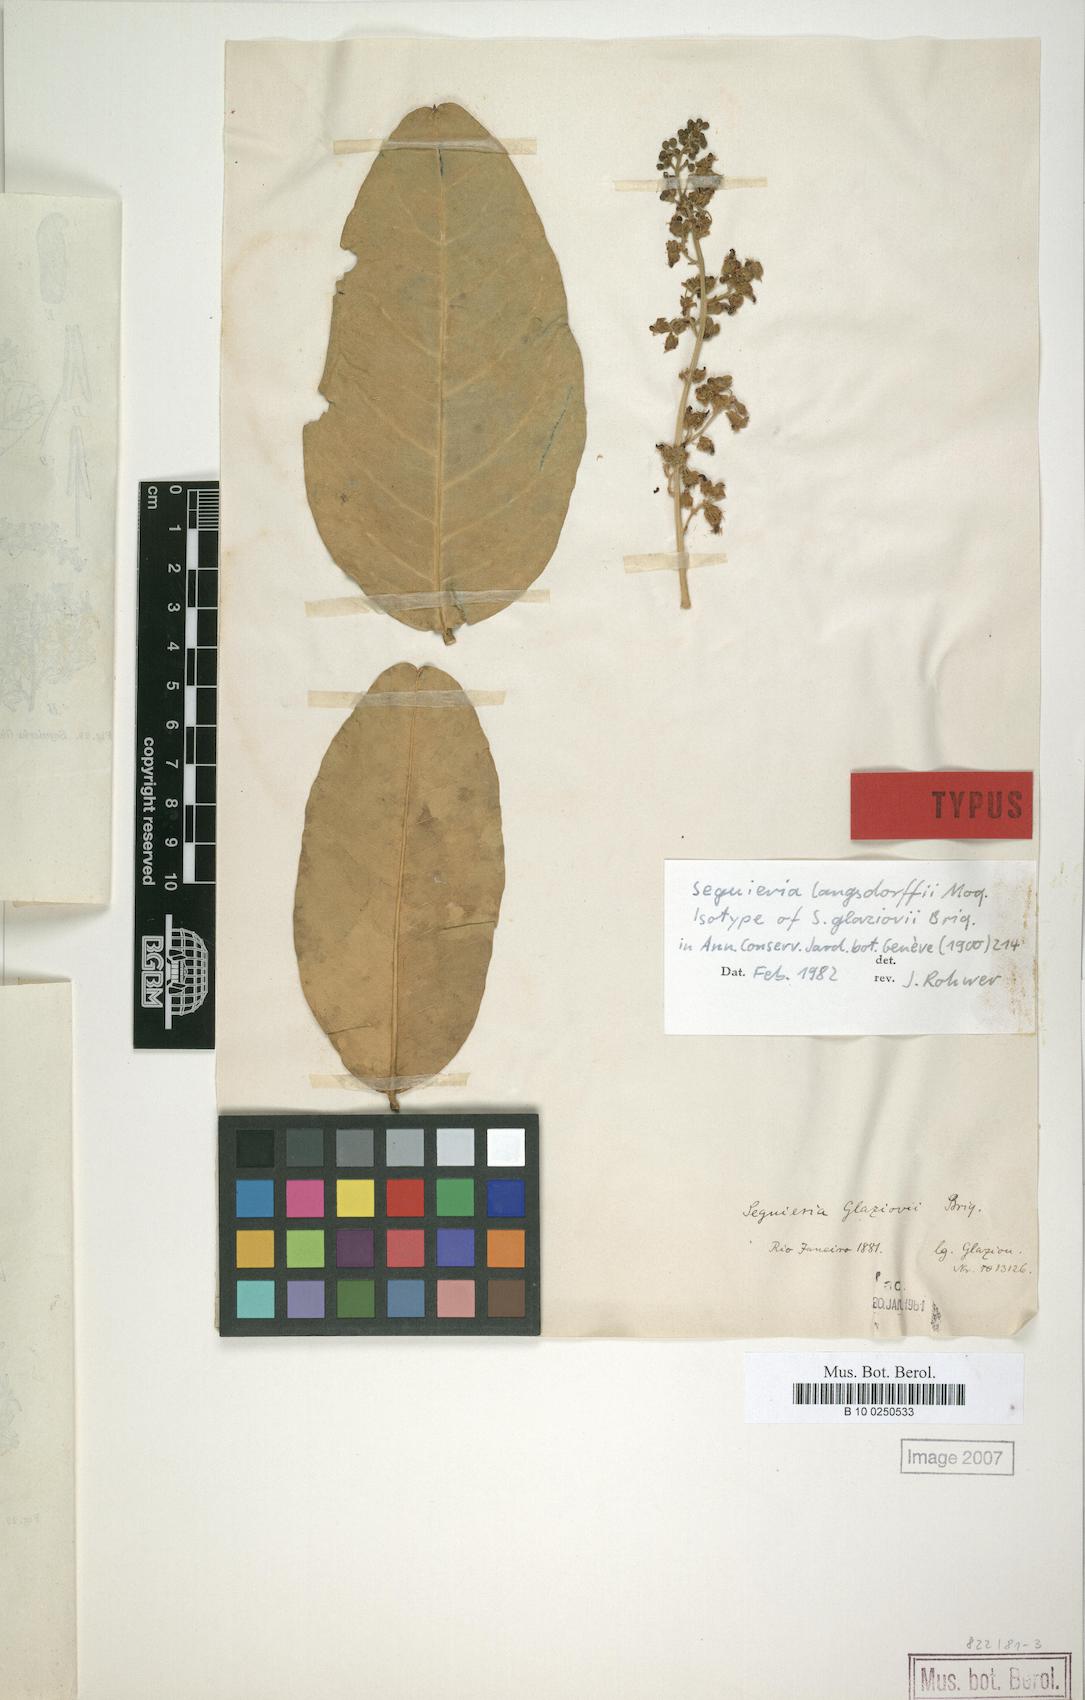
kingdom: Plantae
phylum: Tracheophyta
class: Magnoliopsida
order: Caryophyllales
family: Phytolaccaceae
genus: Seguieria
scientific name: Seguieria langsdorffii
